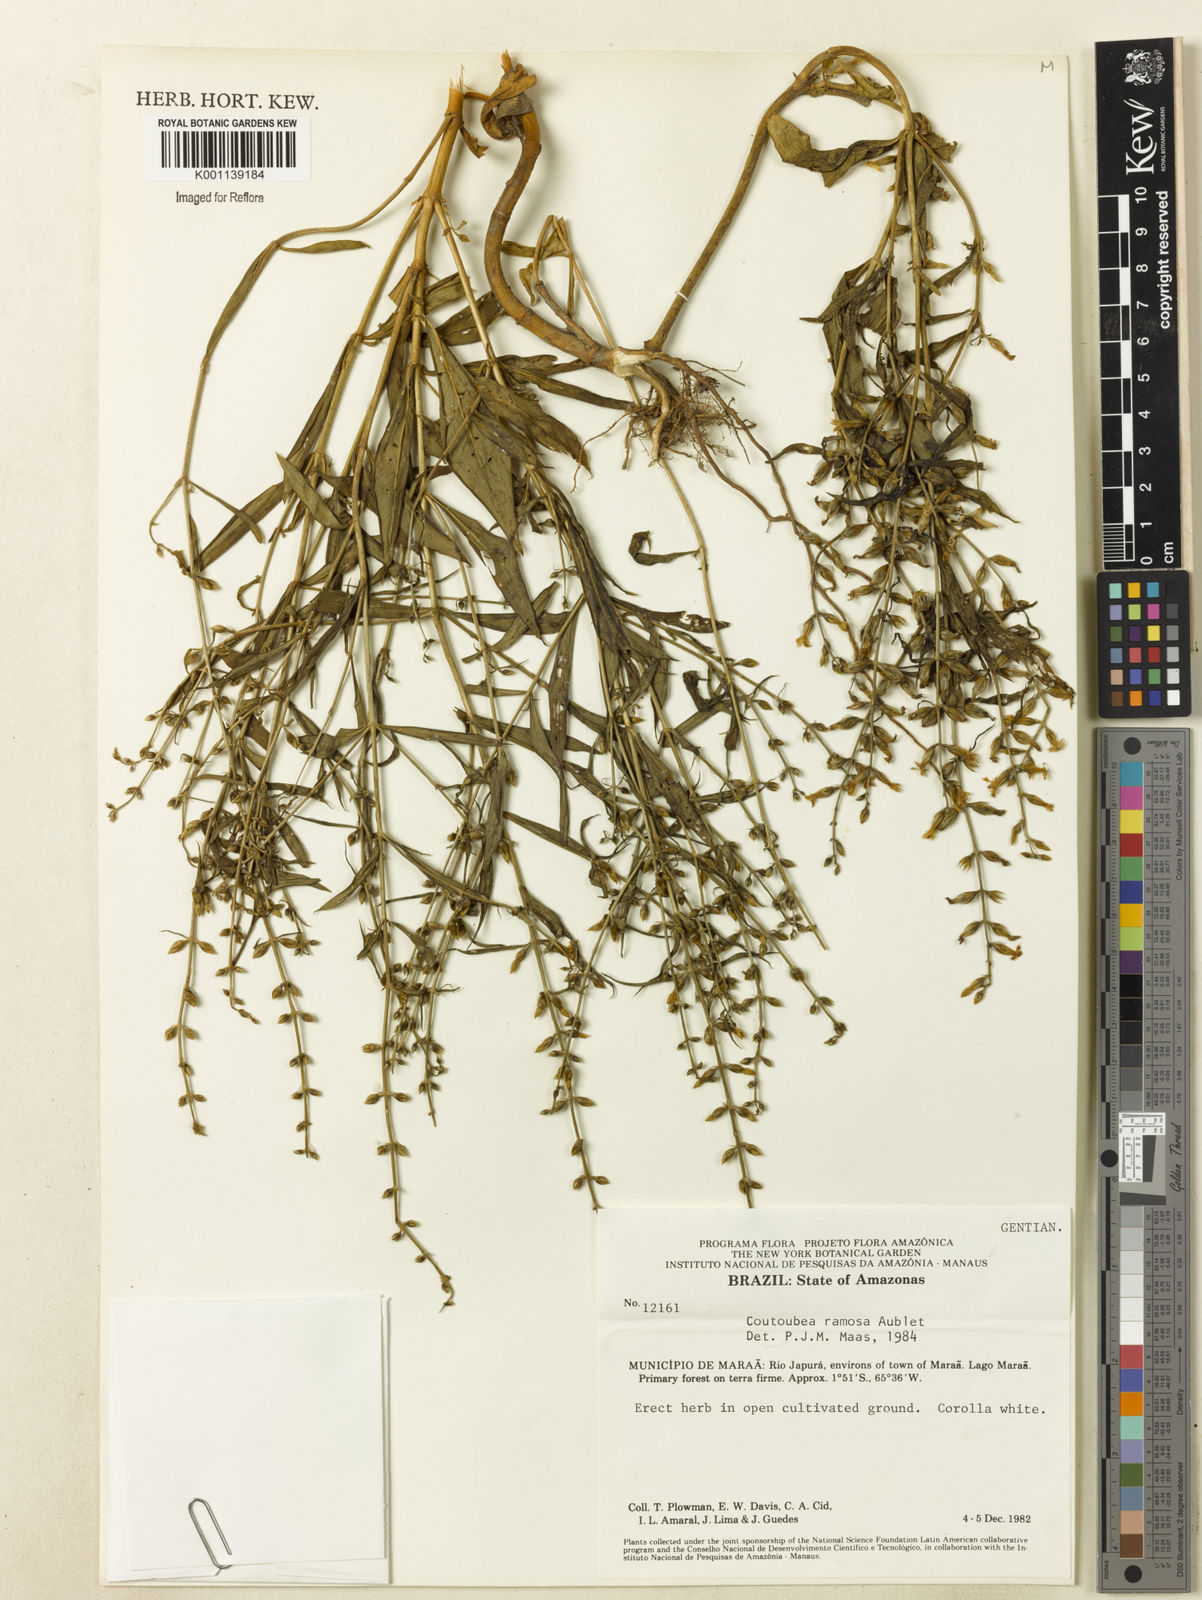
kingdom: Plantae
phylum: Tracheophyta
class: Magnoliopsida
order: Gentianales
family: Gentianaceae
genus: Coutoubea
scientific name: Coutoubea ramosa
